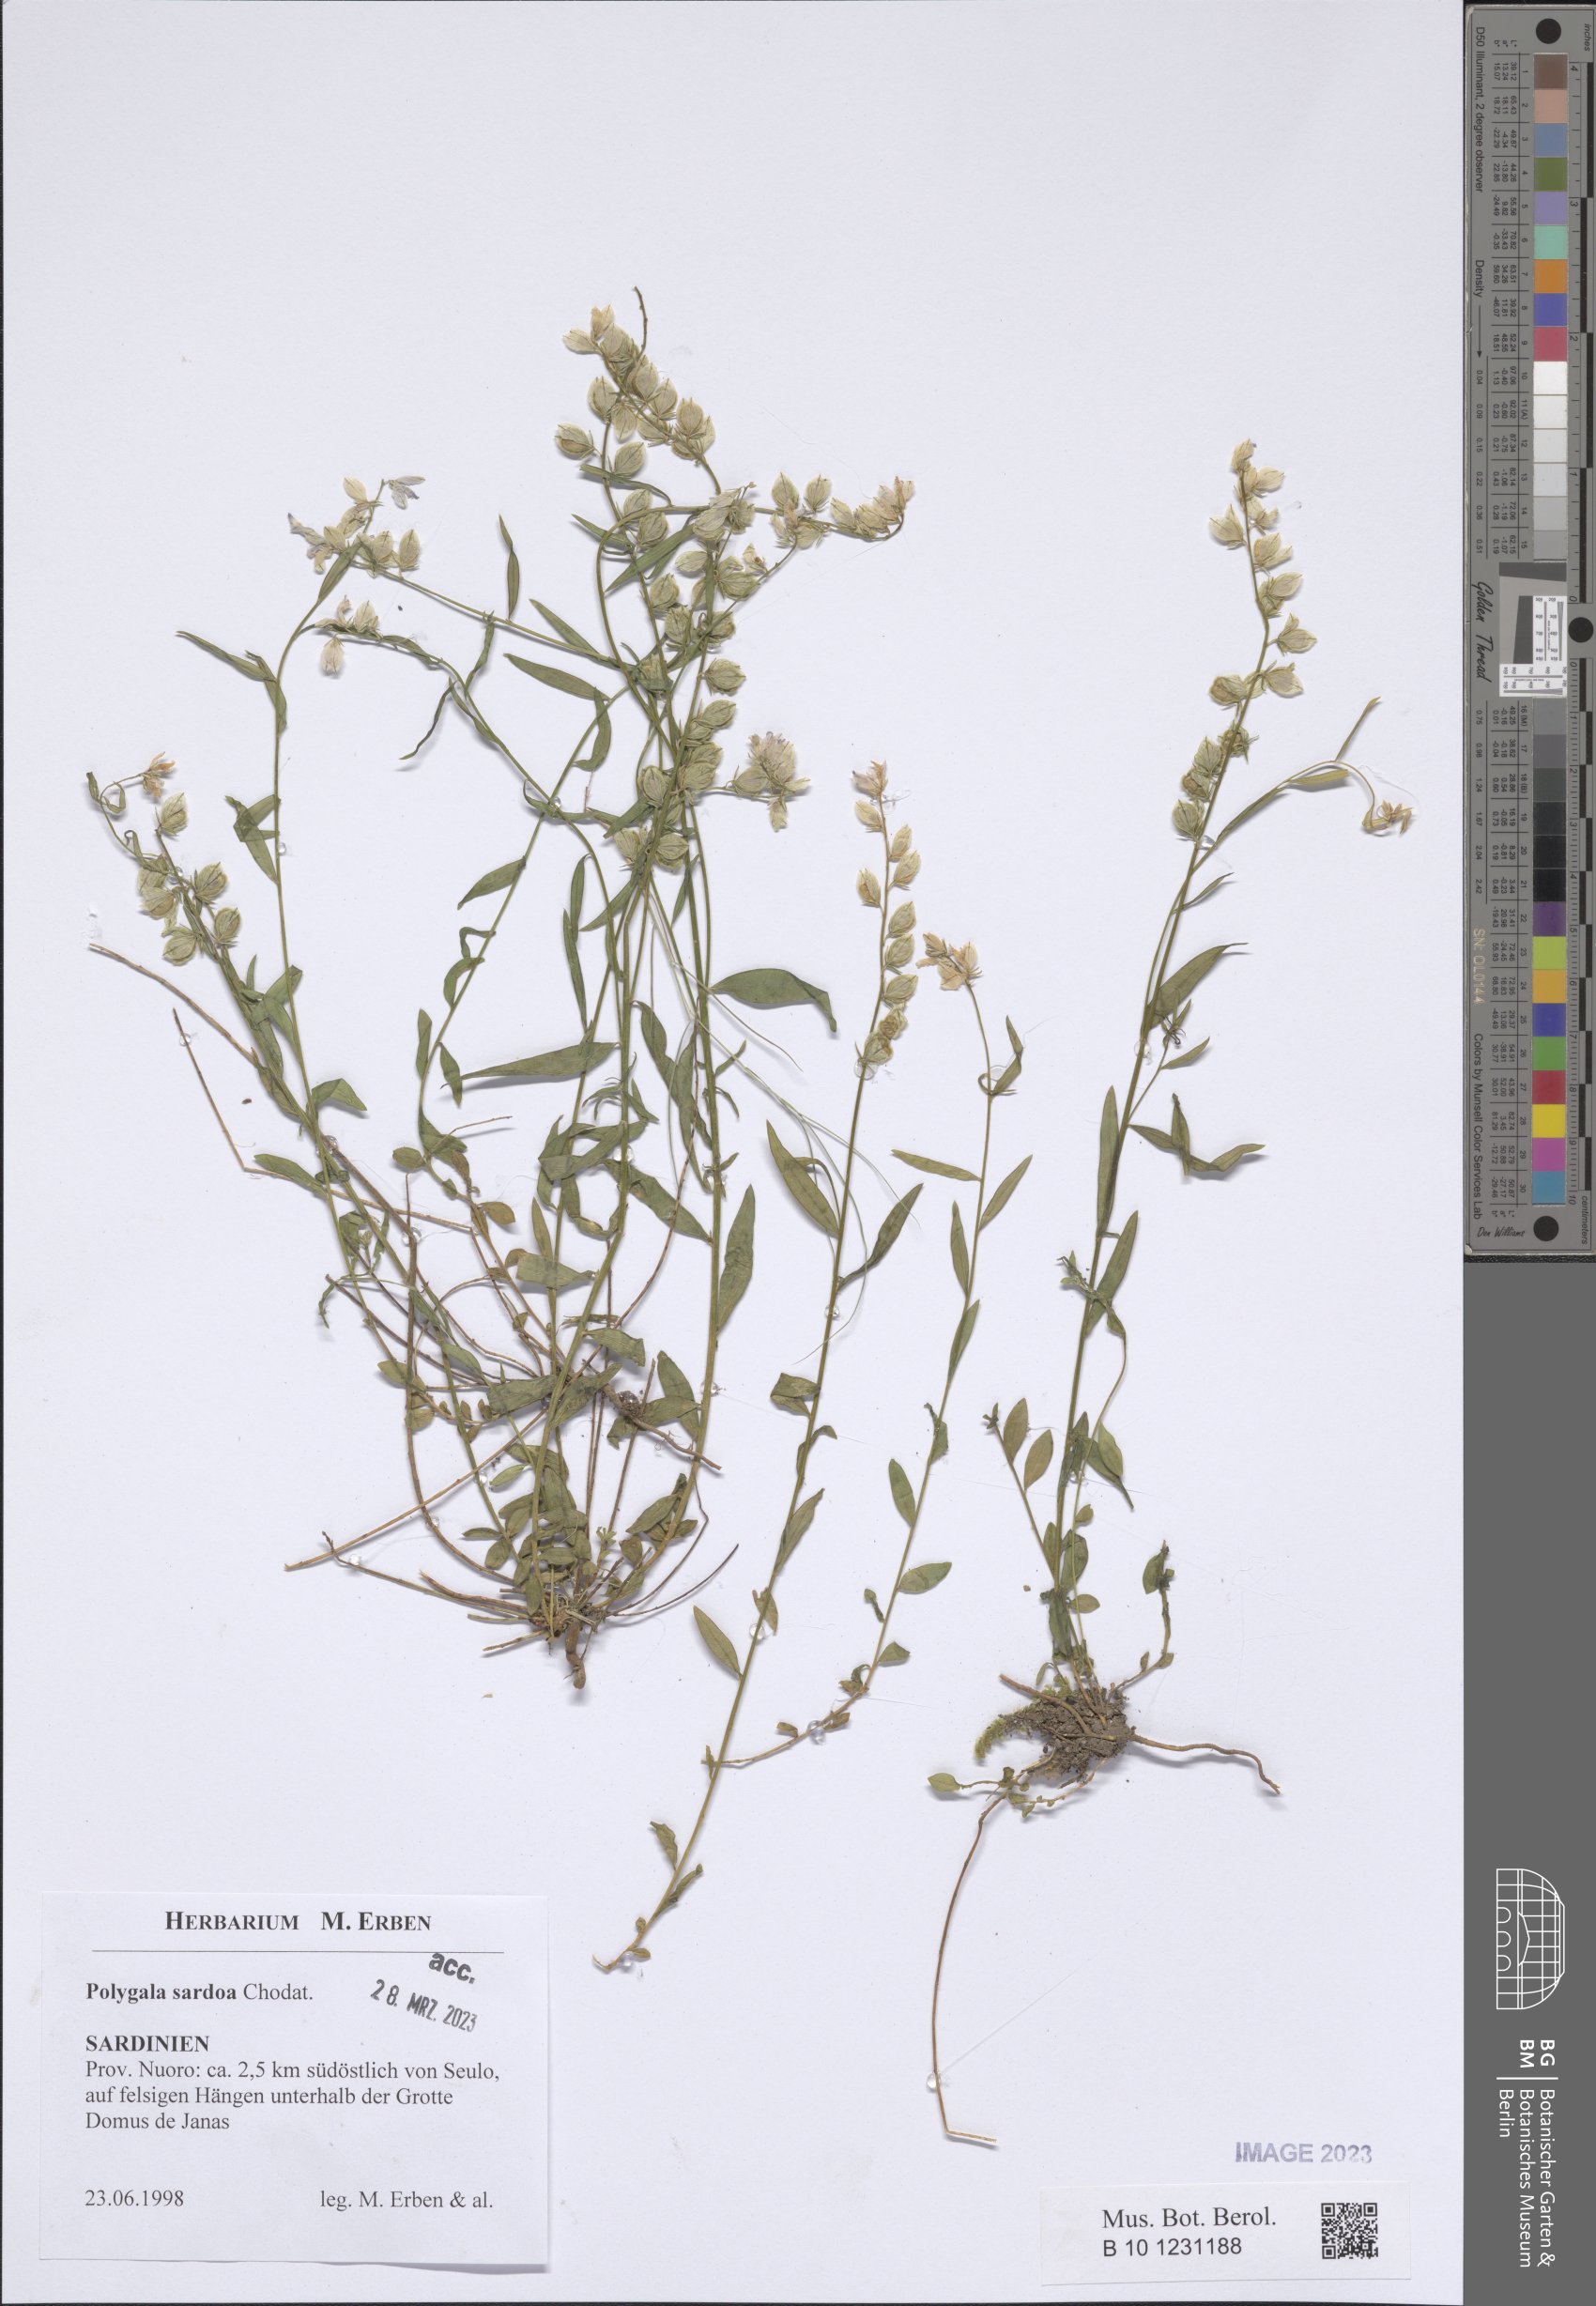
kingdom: Plantae
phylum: Tracheophyta
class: Magnoliopsida
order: Fabales
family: Polygalaceae
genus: Polygala
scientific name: Polygala sardoa
